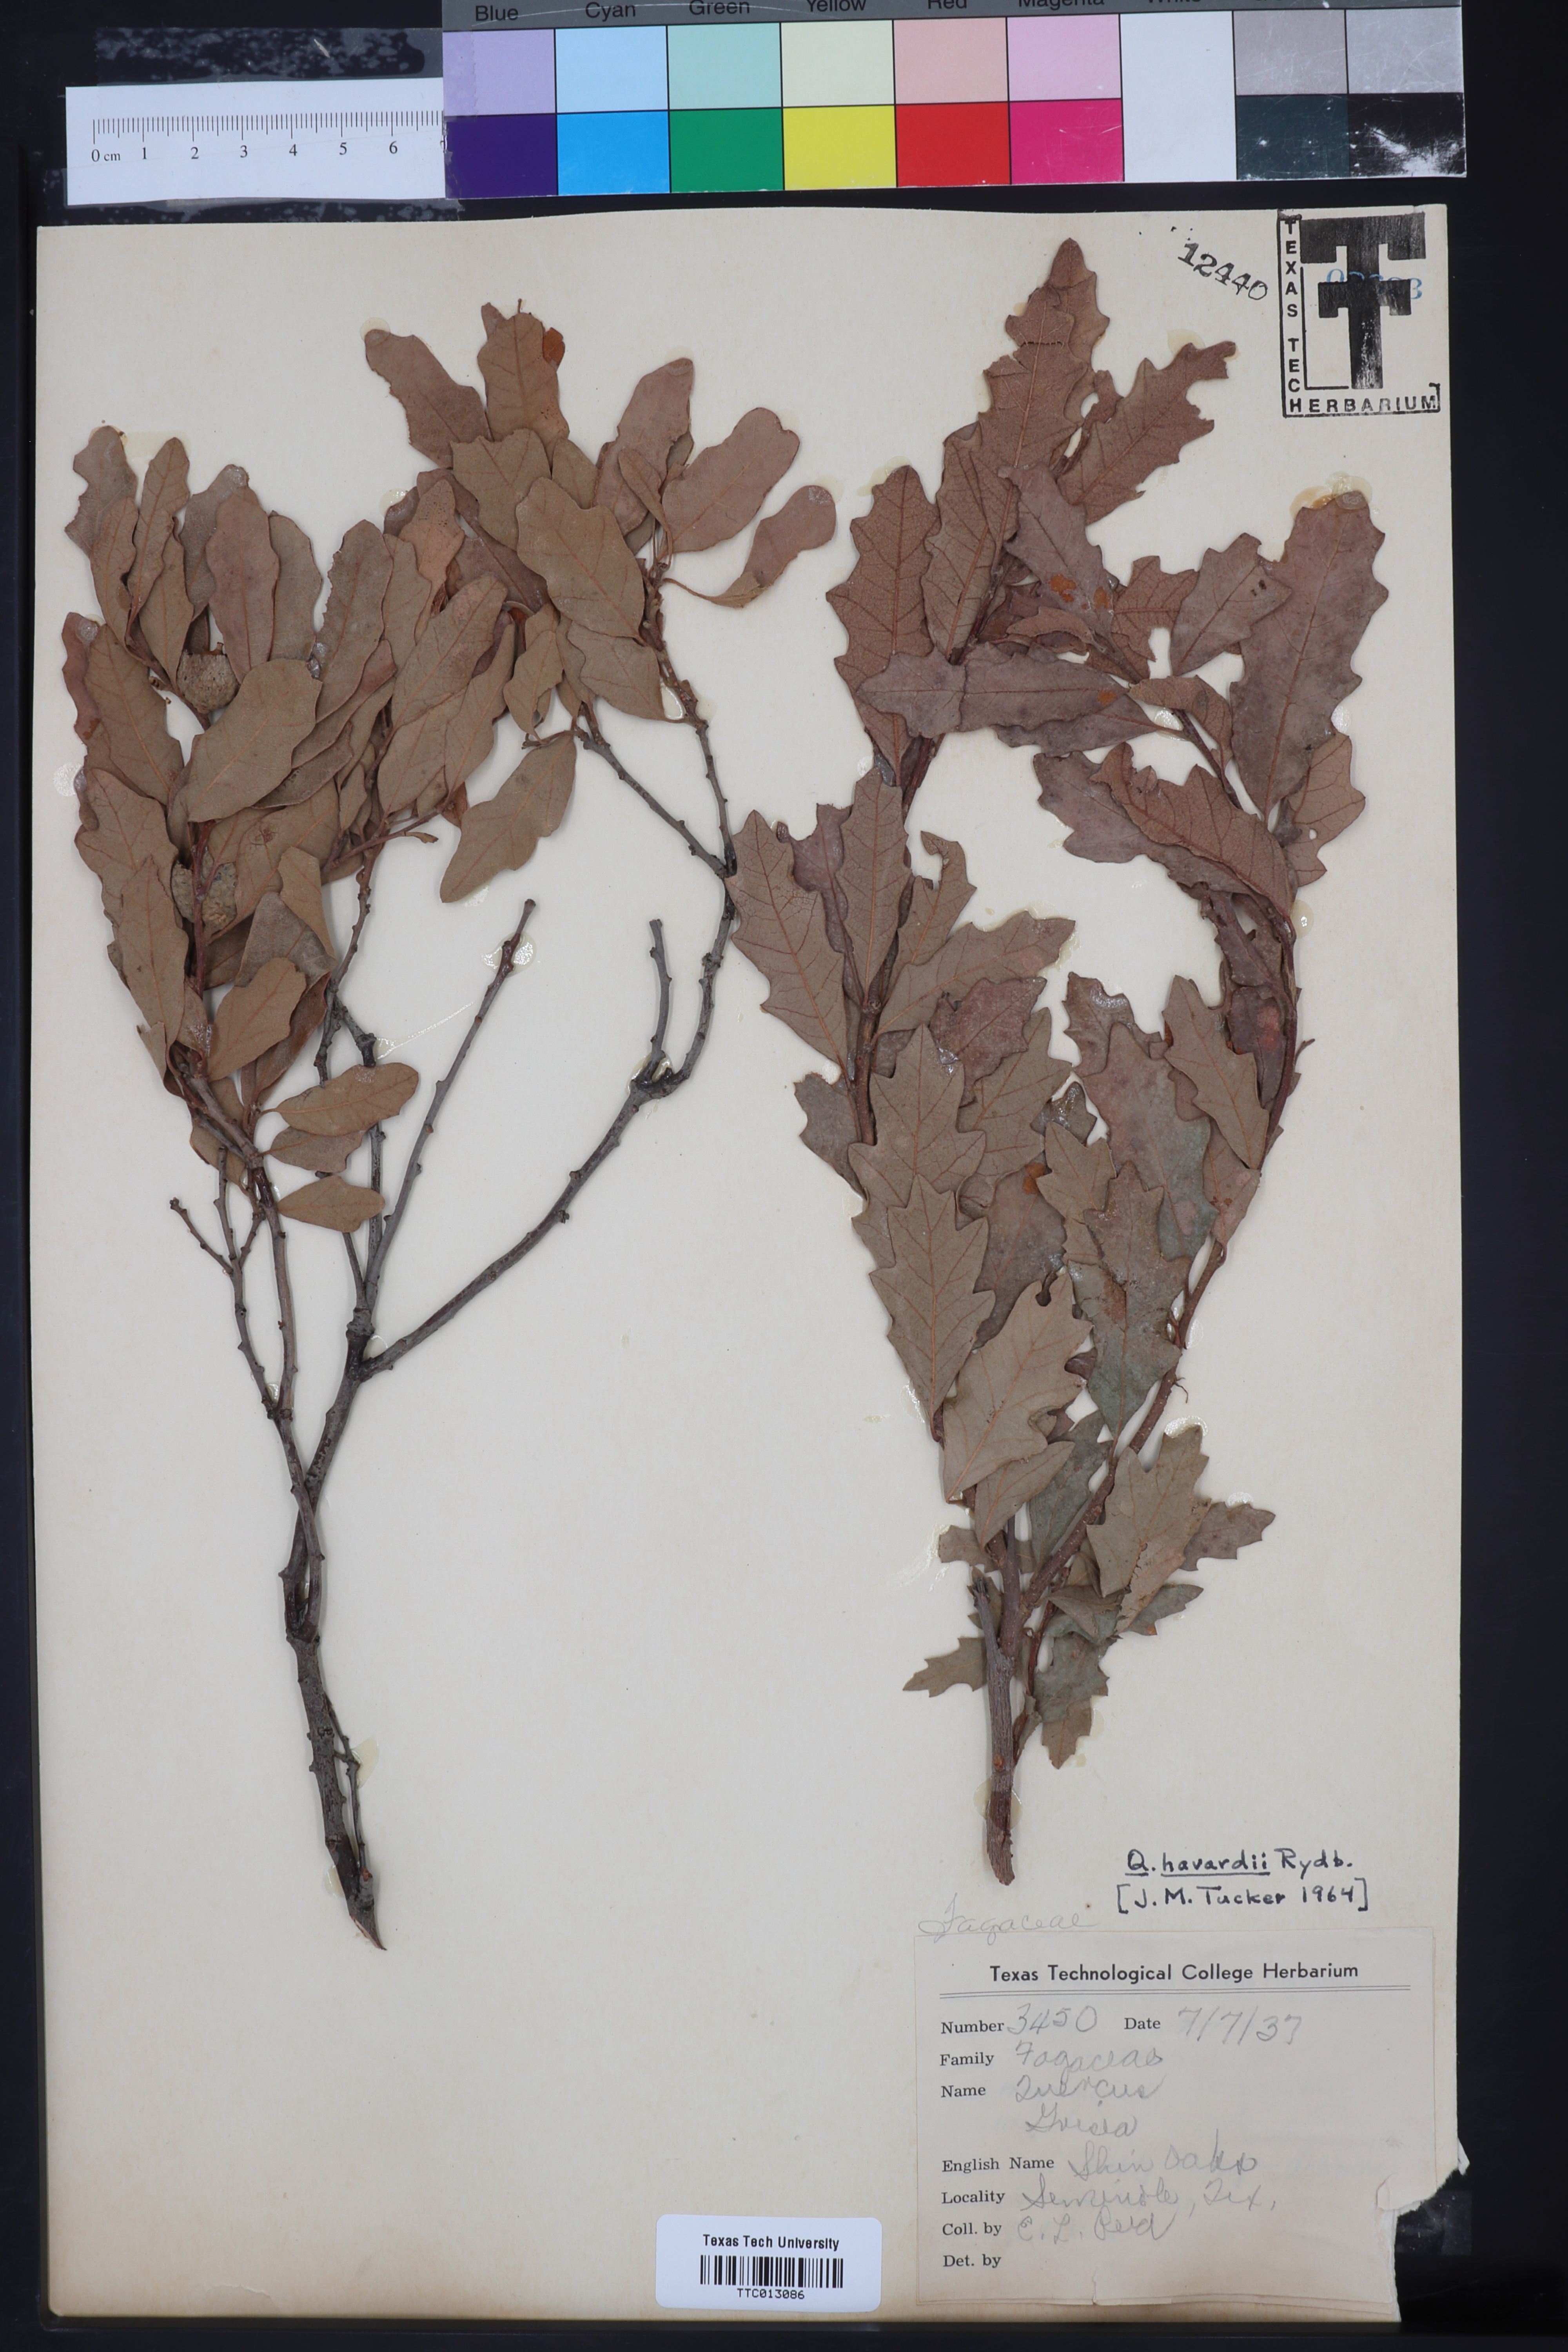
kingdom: Plantae
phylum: Tracheophyta
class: Magnoliopsida
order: Fagales
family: Fagaceae
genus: Quercus
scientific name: Quercus havardii
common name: Shinnery oak
